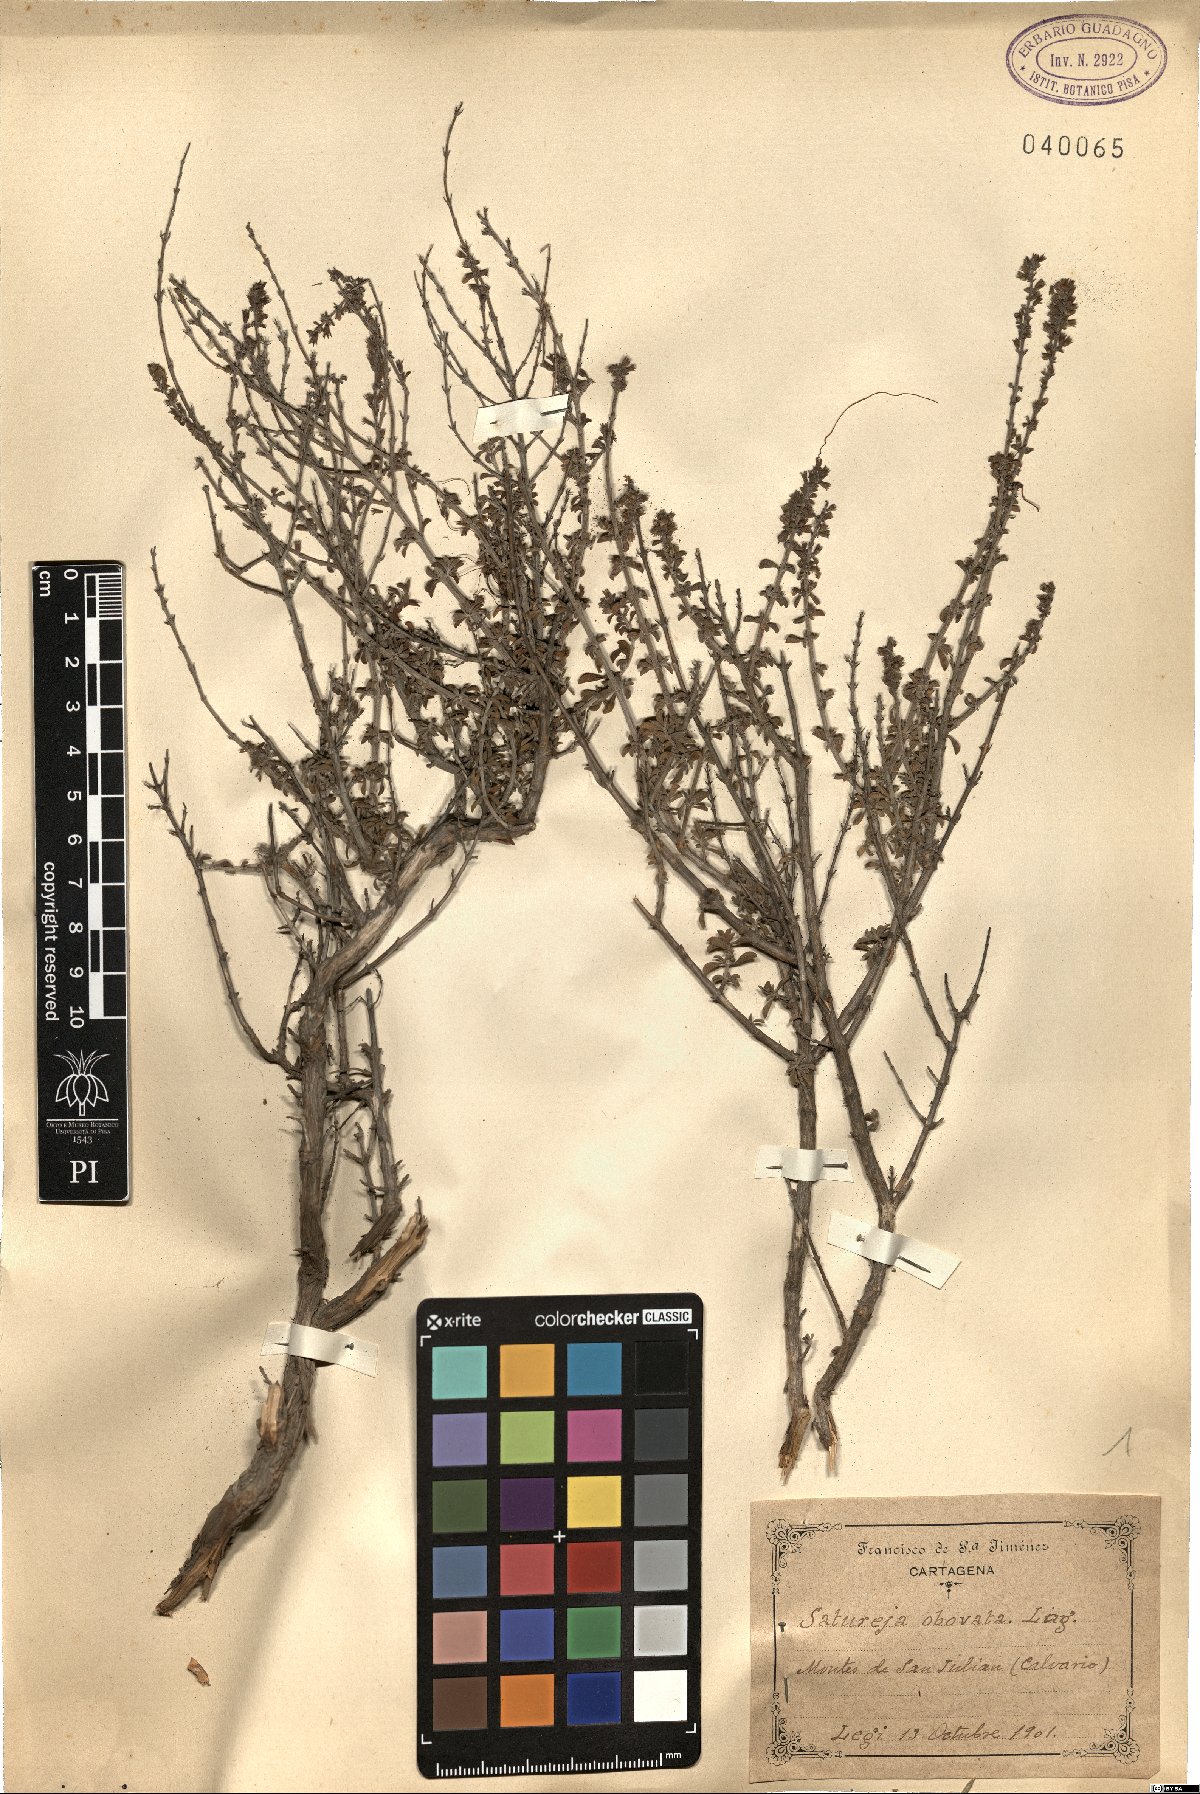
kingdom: Plantae
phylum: Tracheophyta
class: Magnoliopsida
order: Lamiales
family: Lamiaceae
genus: Satureja
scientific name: Satureja cuneifolia
